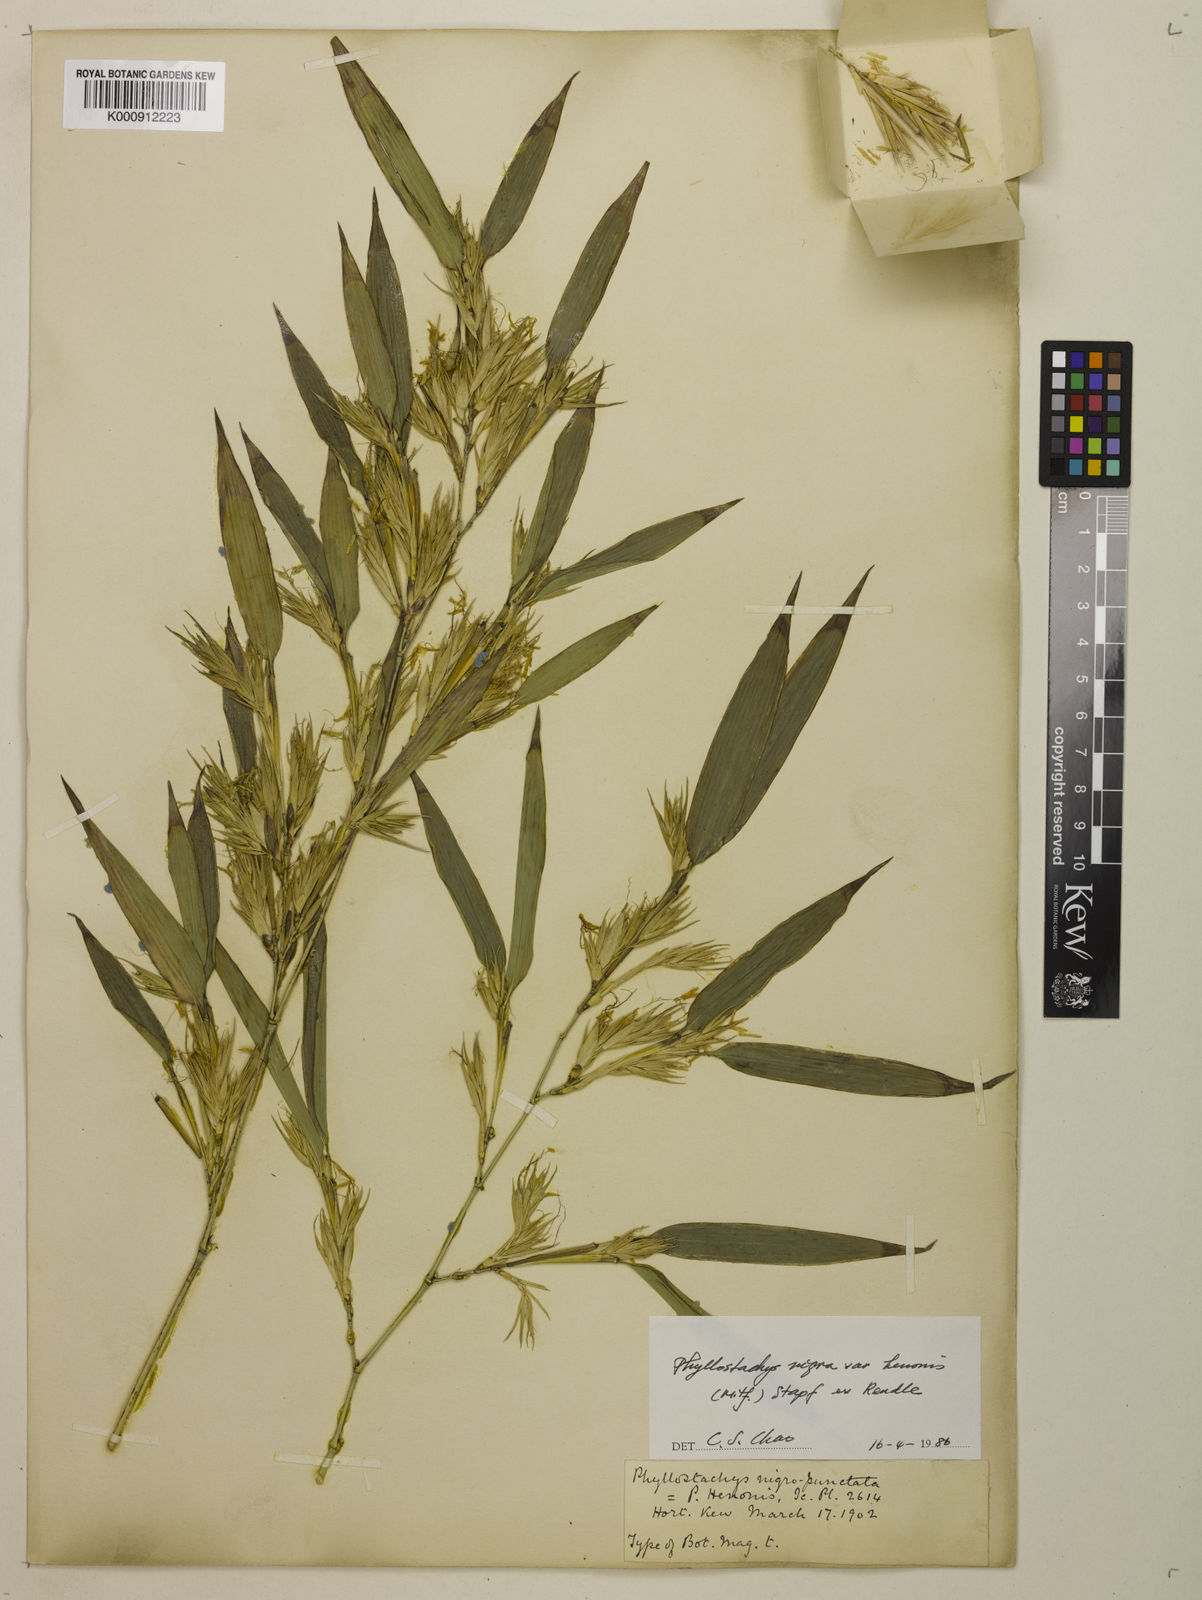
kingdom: Plantae
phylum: Tracheophyta
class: Liliopsida
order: Poales
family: Poaceae
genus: Phyllostachys
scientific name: Phyllostachys nigra
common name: Black bamboo
